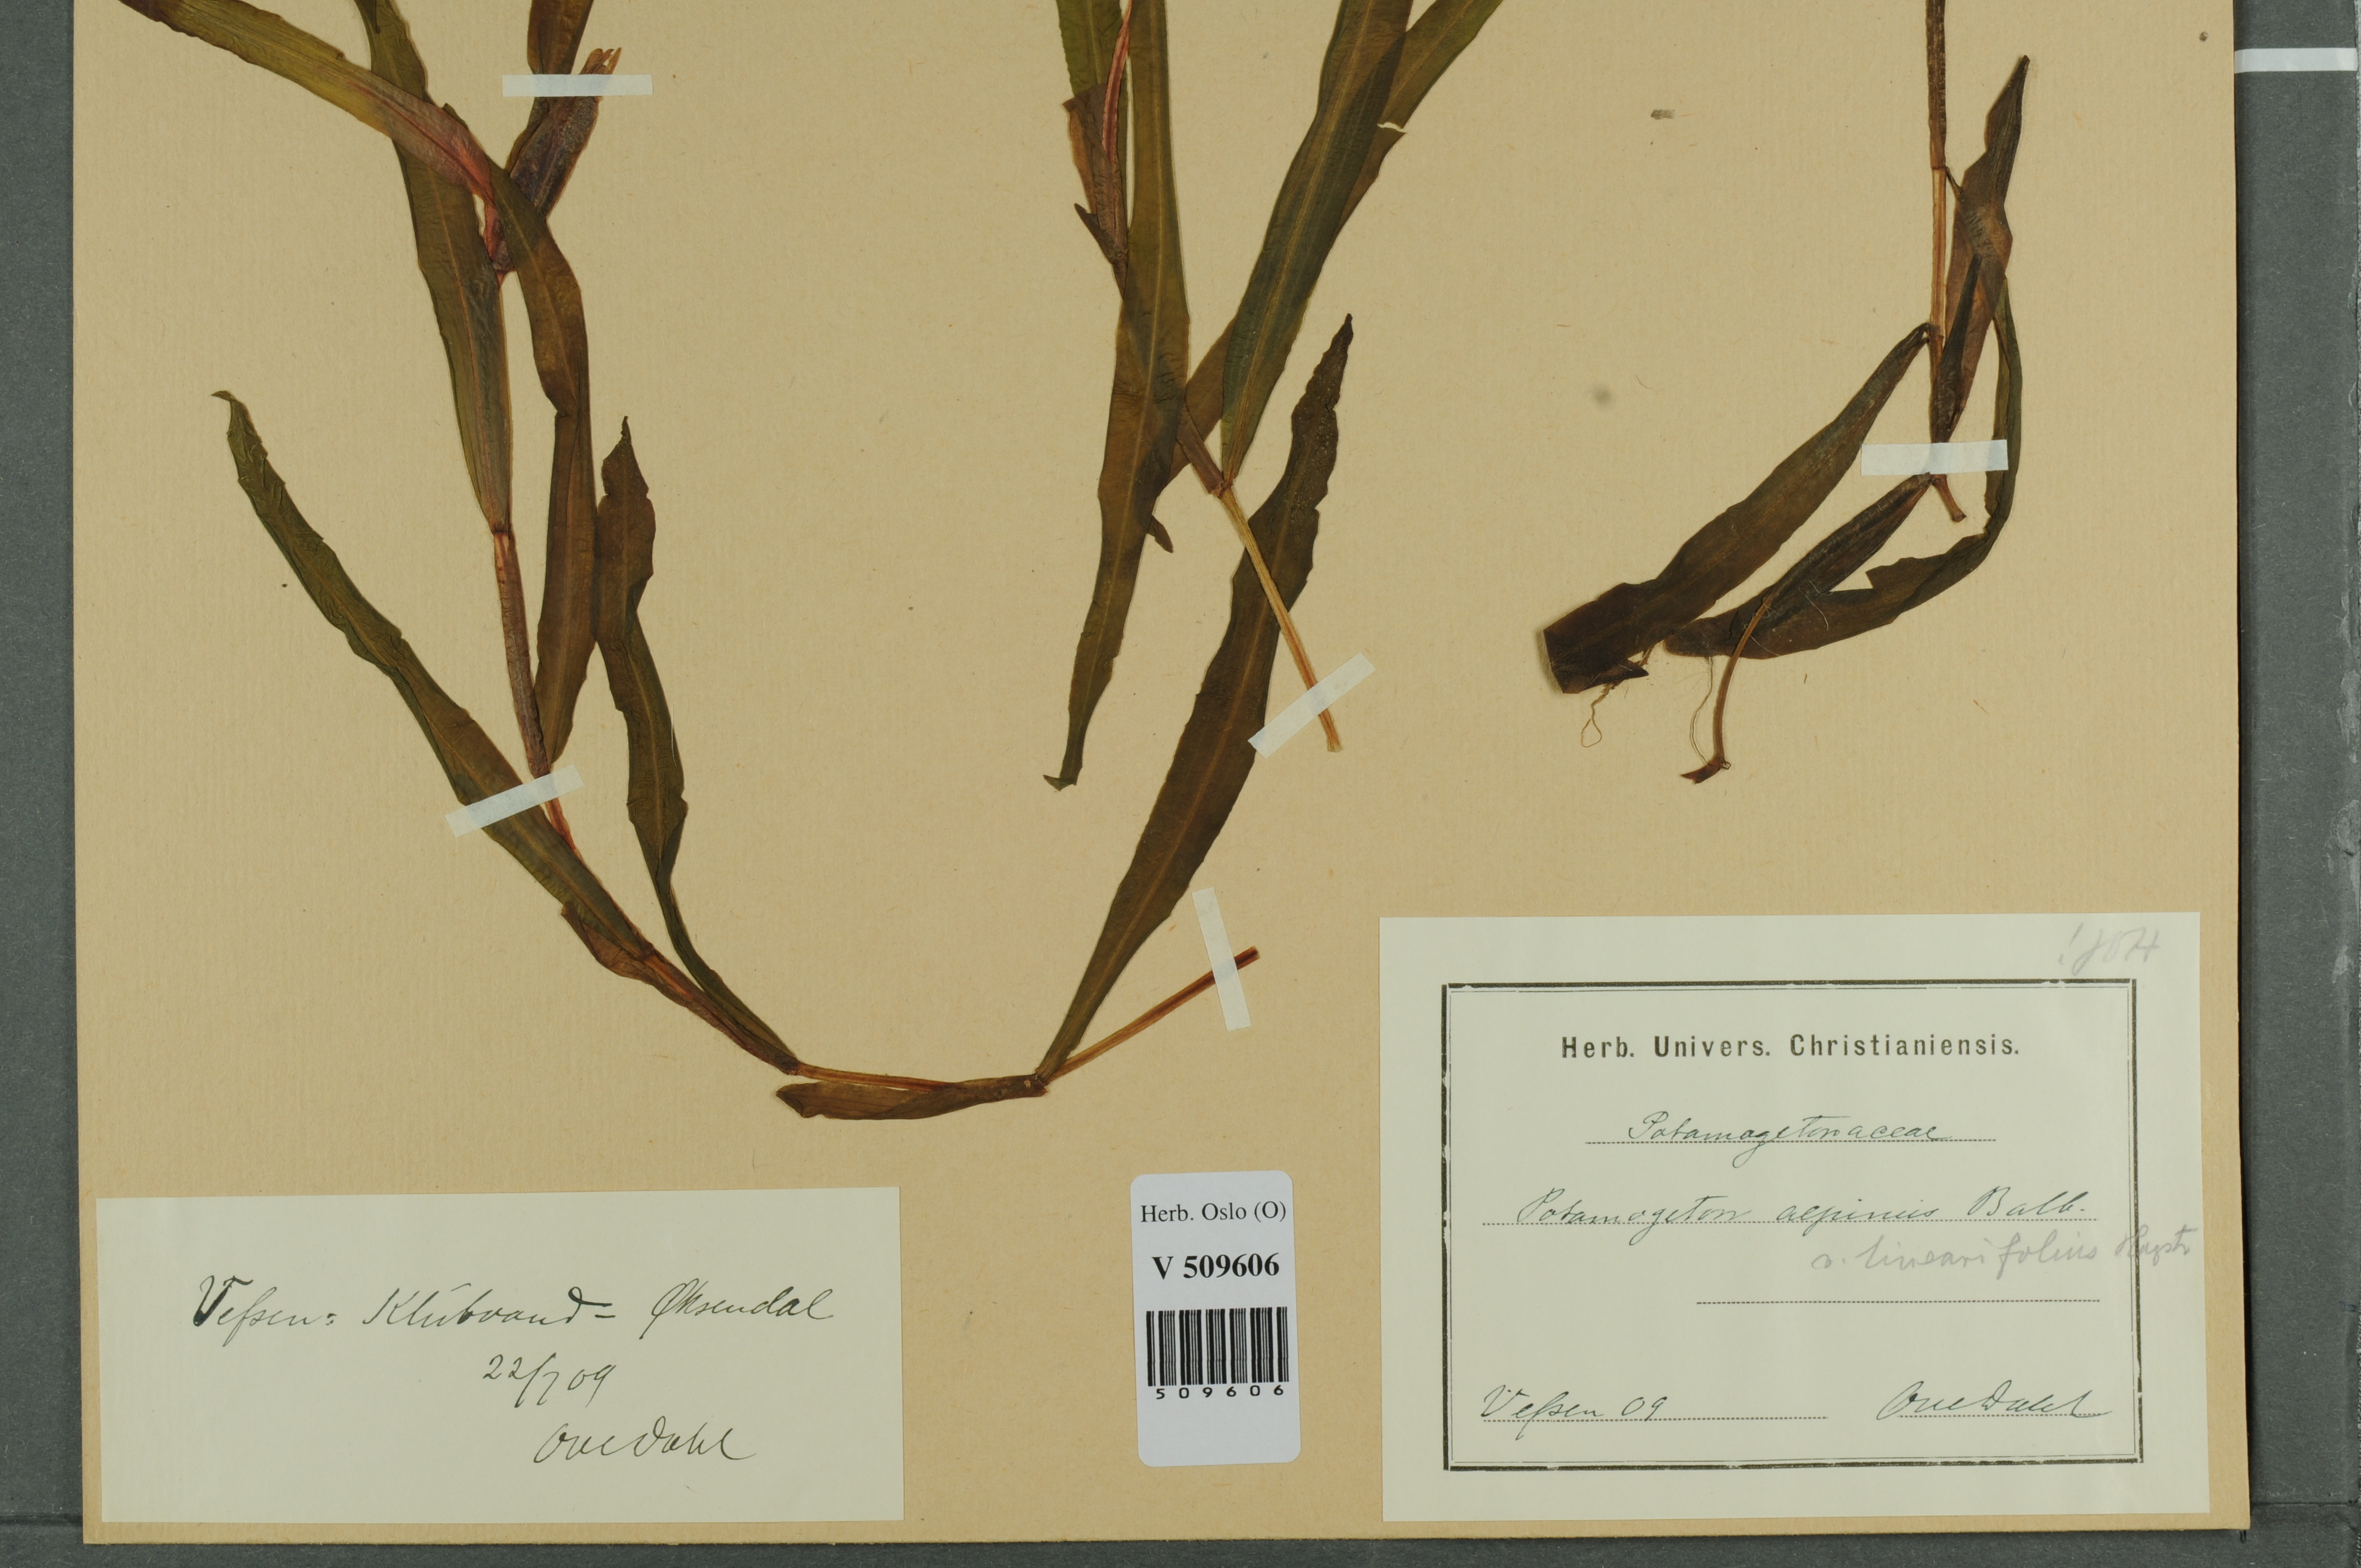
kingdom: Plantae
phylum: Tracheophyta
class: Liliopsida
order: Alismatales
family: Potamogetonaceae
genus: Potamogeton
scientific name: Potamogeton alpinus
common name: Red pondweed
